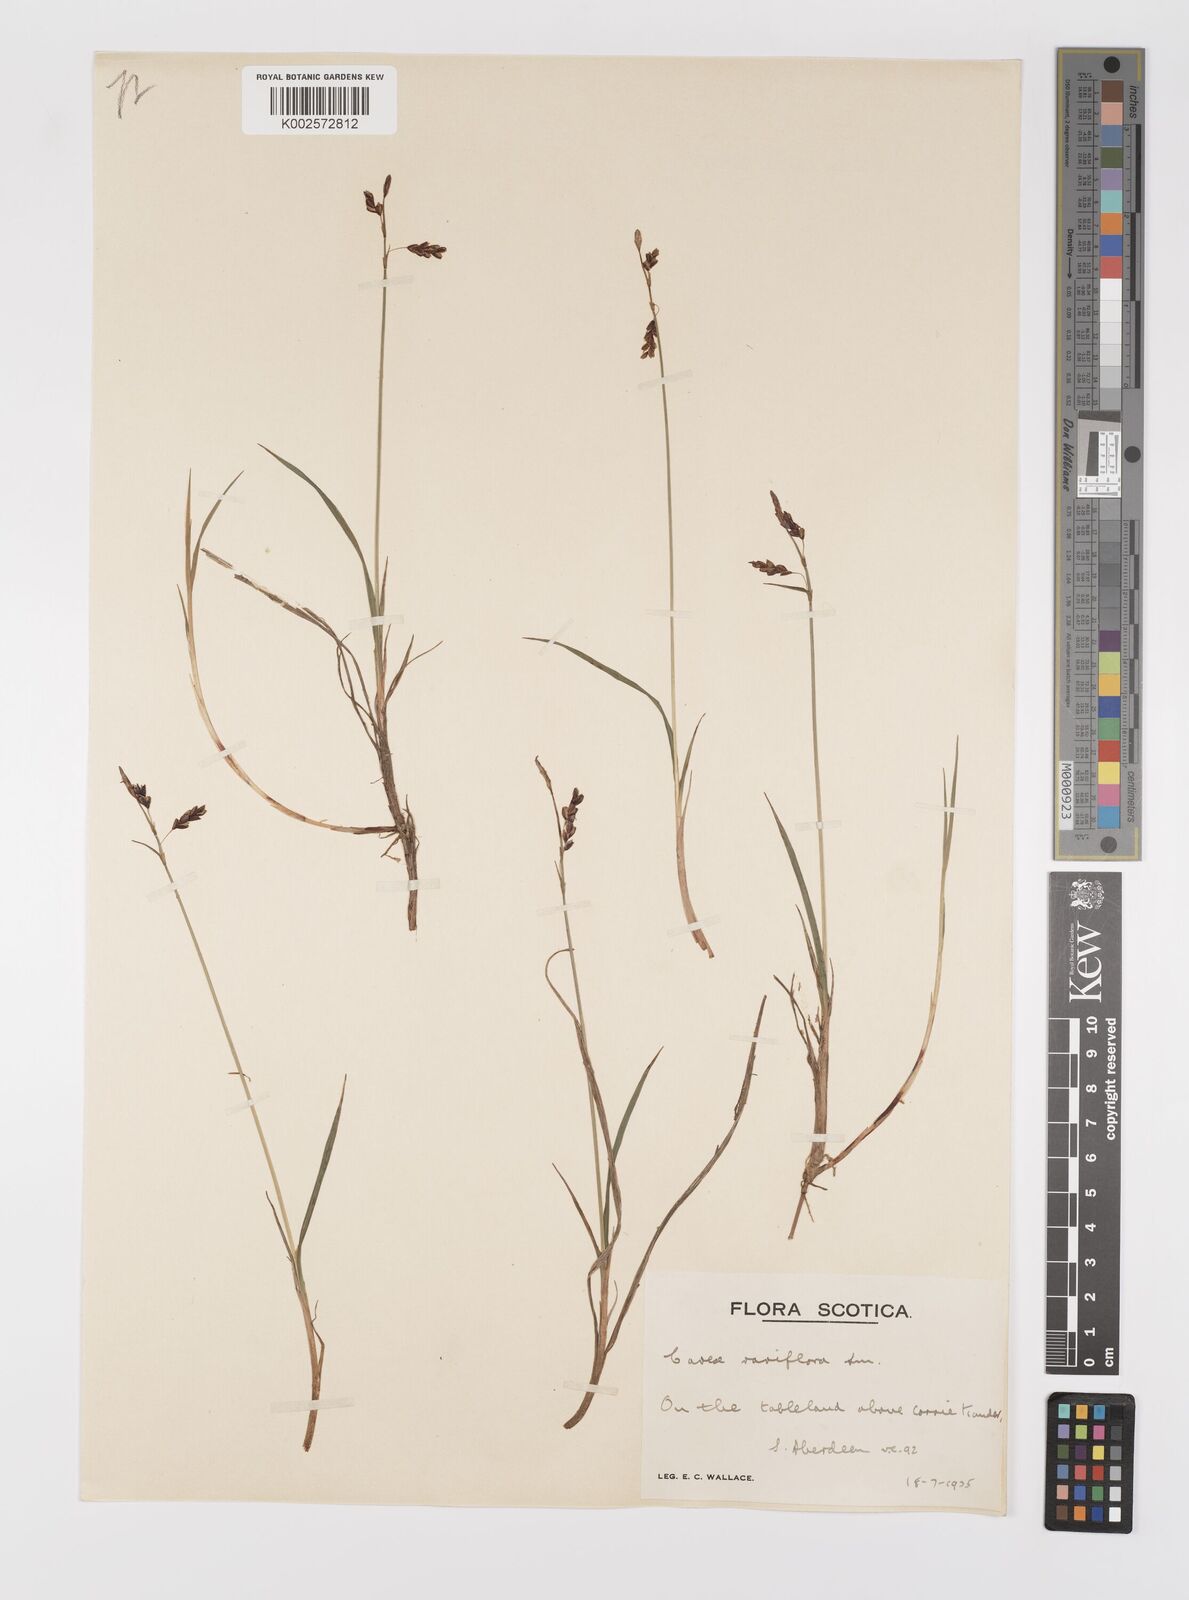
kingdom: Plantae
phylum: Tracheophyta
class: Liliopsida
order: Poales
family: Cyperaceae
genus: Carex
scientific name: Carex rariflora
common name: Loose-flowered alpine sedge
